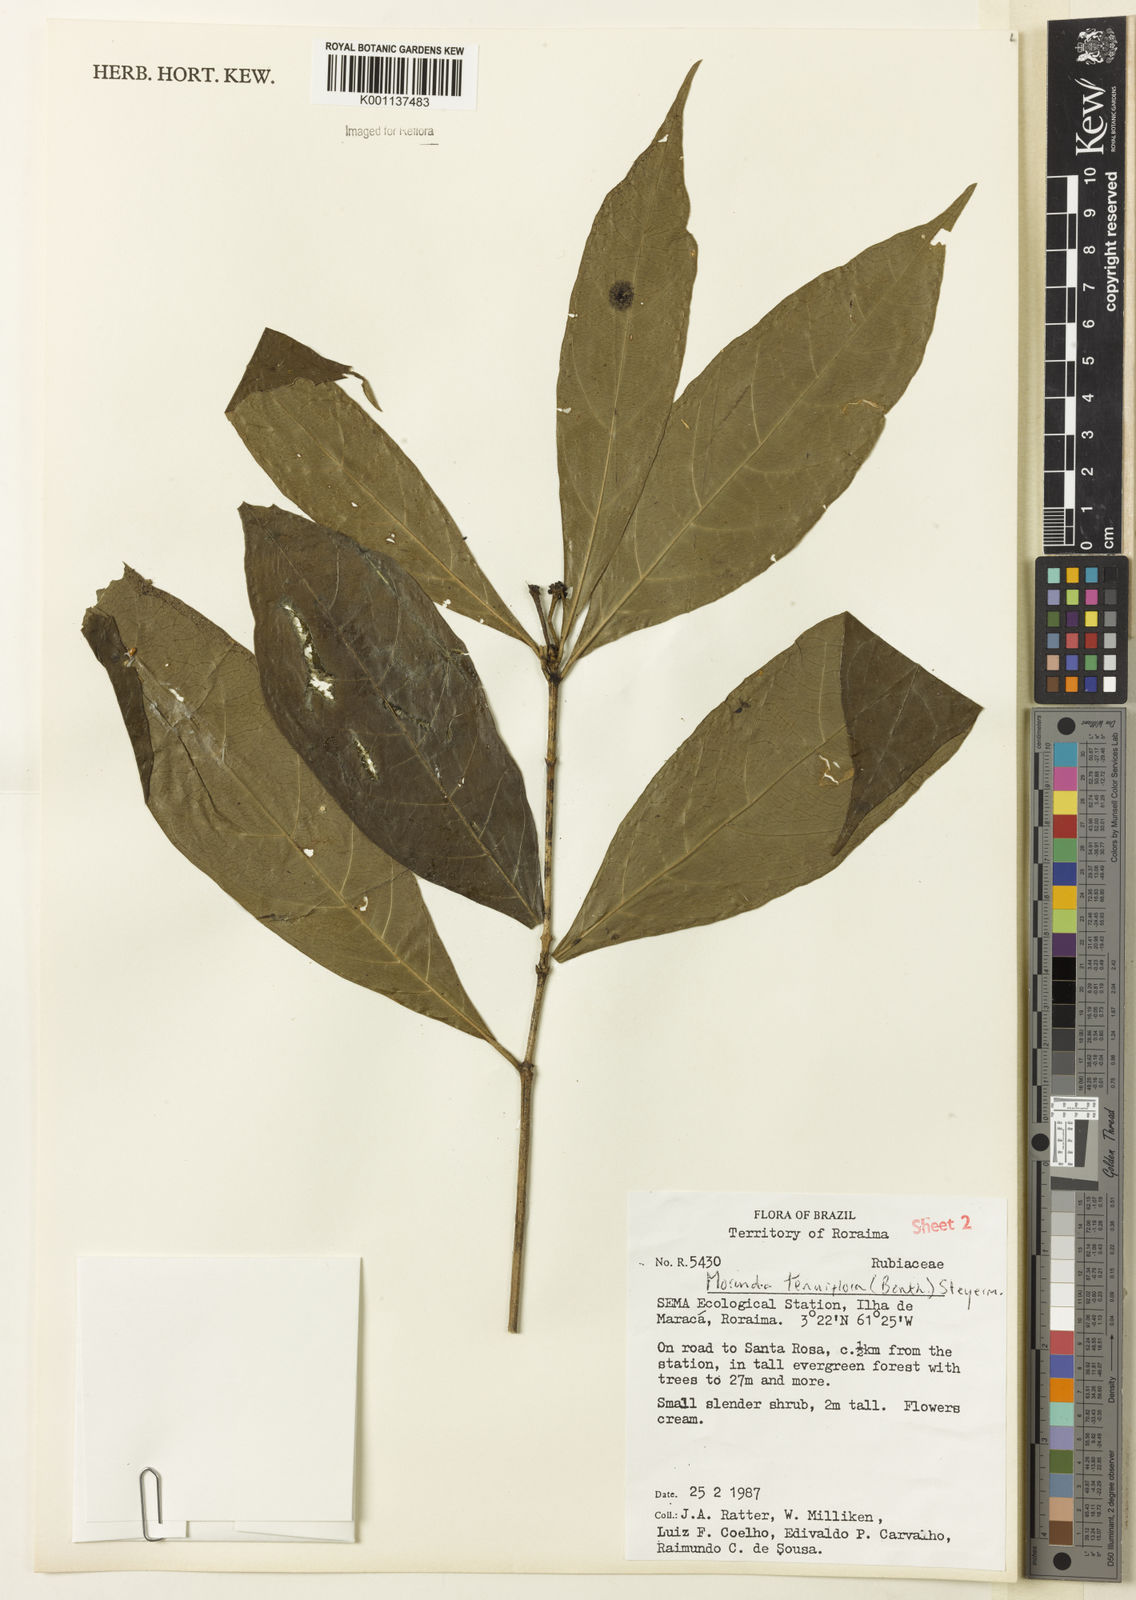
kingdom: Plantae
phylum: Tracheophyta
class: Magnoliopsida
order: Gentianales
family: Rubiaceae
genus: Appunia
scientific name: Appunia tenuiflora
